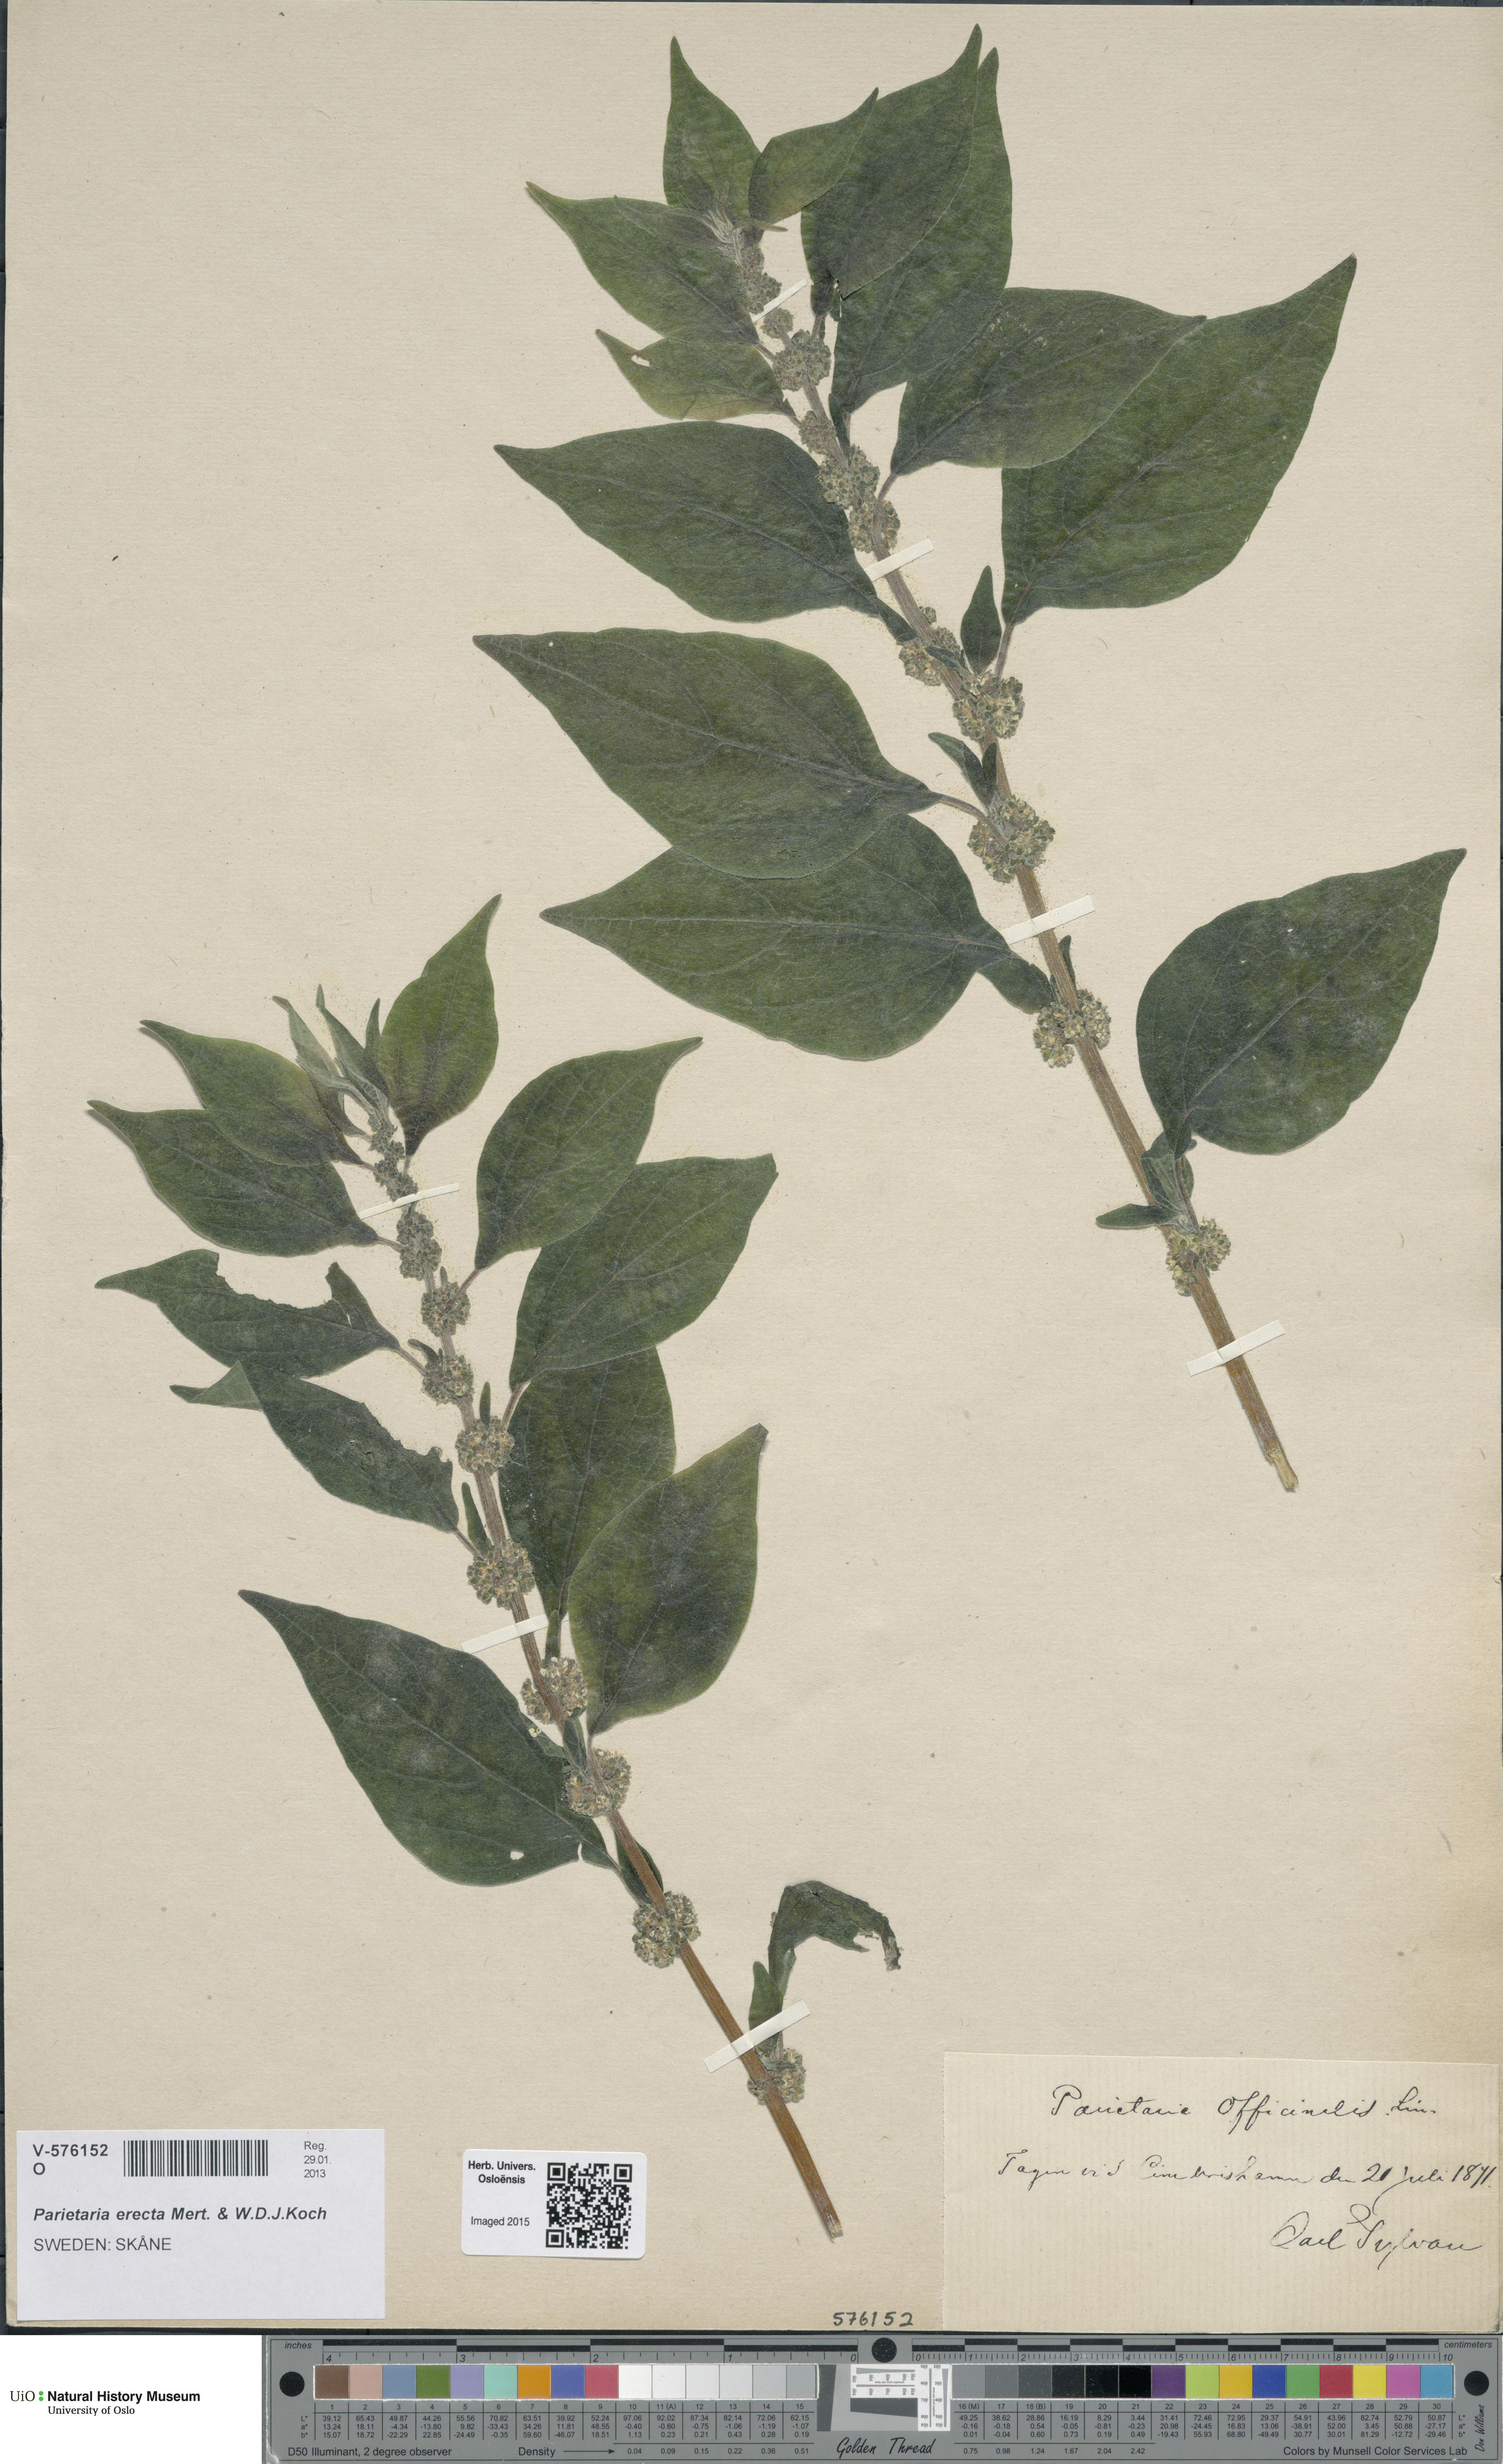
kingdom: Plantae
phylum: Tracheophyta
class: Magnoliopsida
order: Rosales
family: Urticaceae
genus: Parietaria
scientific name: Parietaria officinalis
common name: Eastern pellitory-of-the-wall
